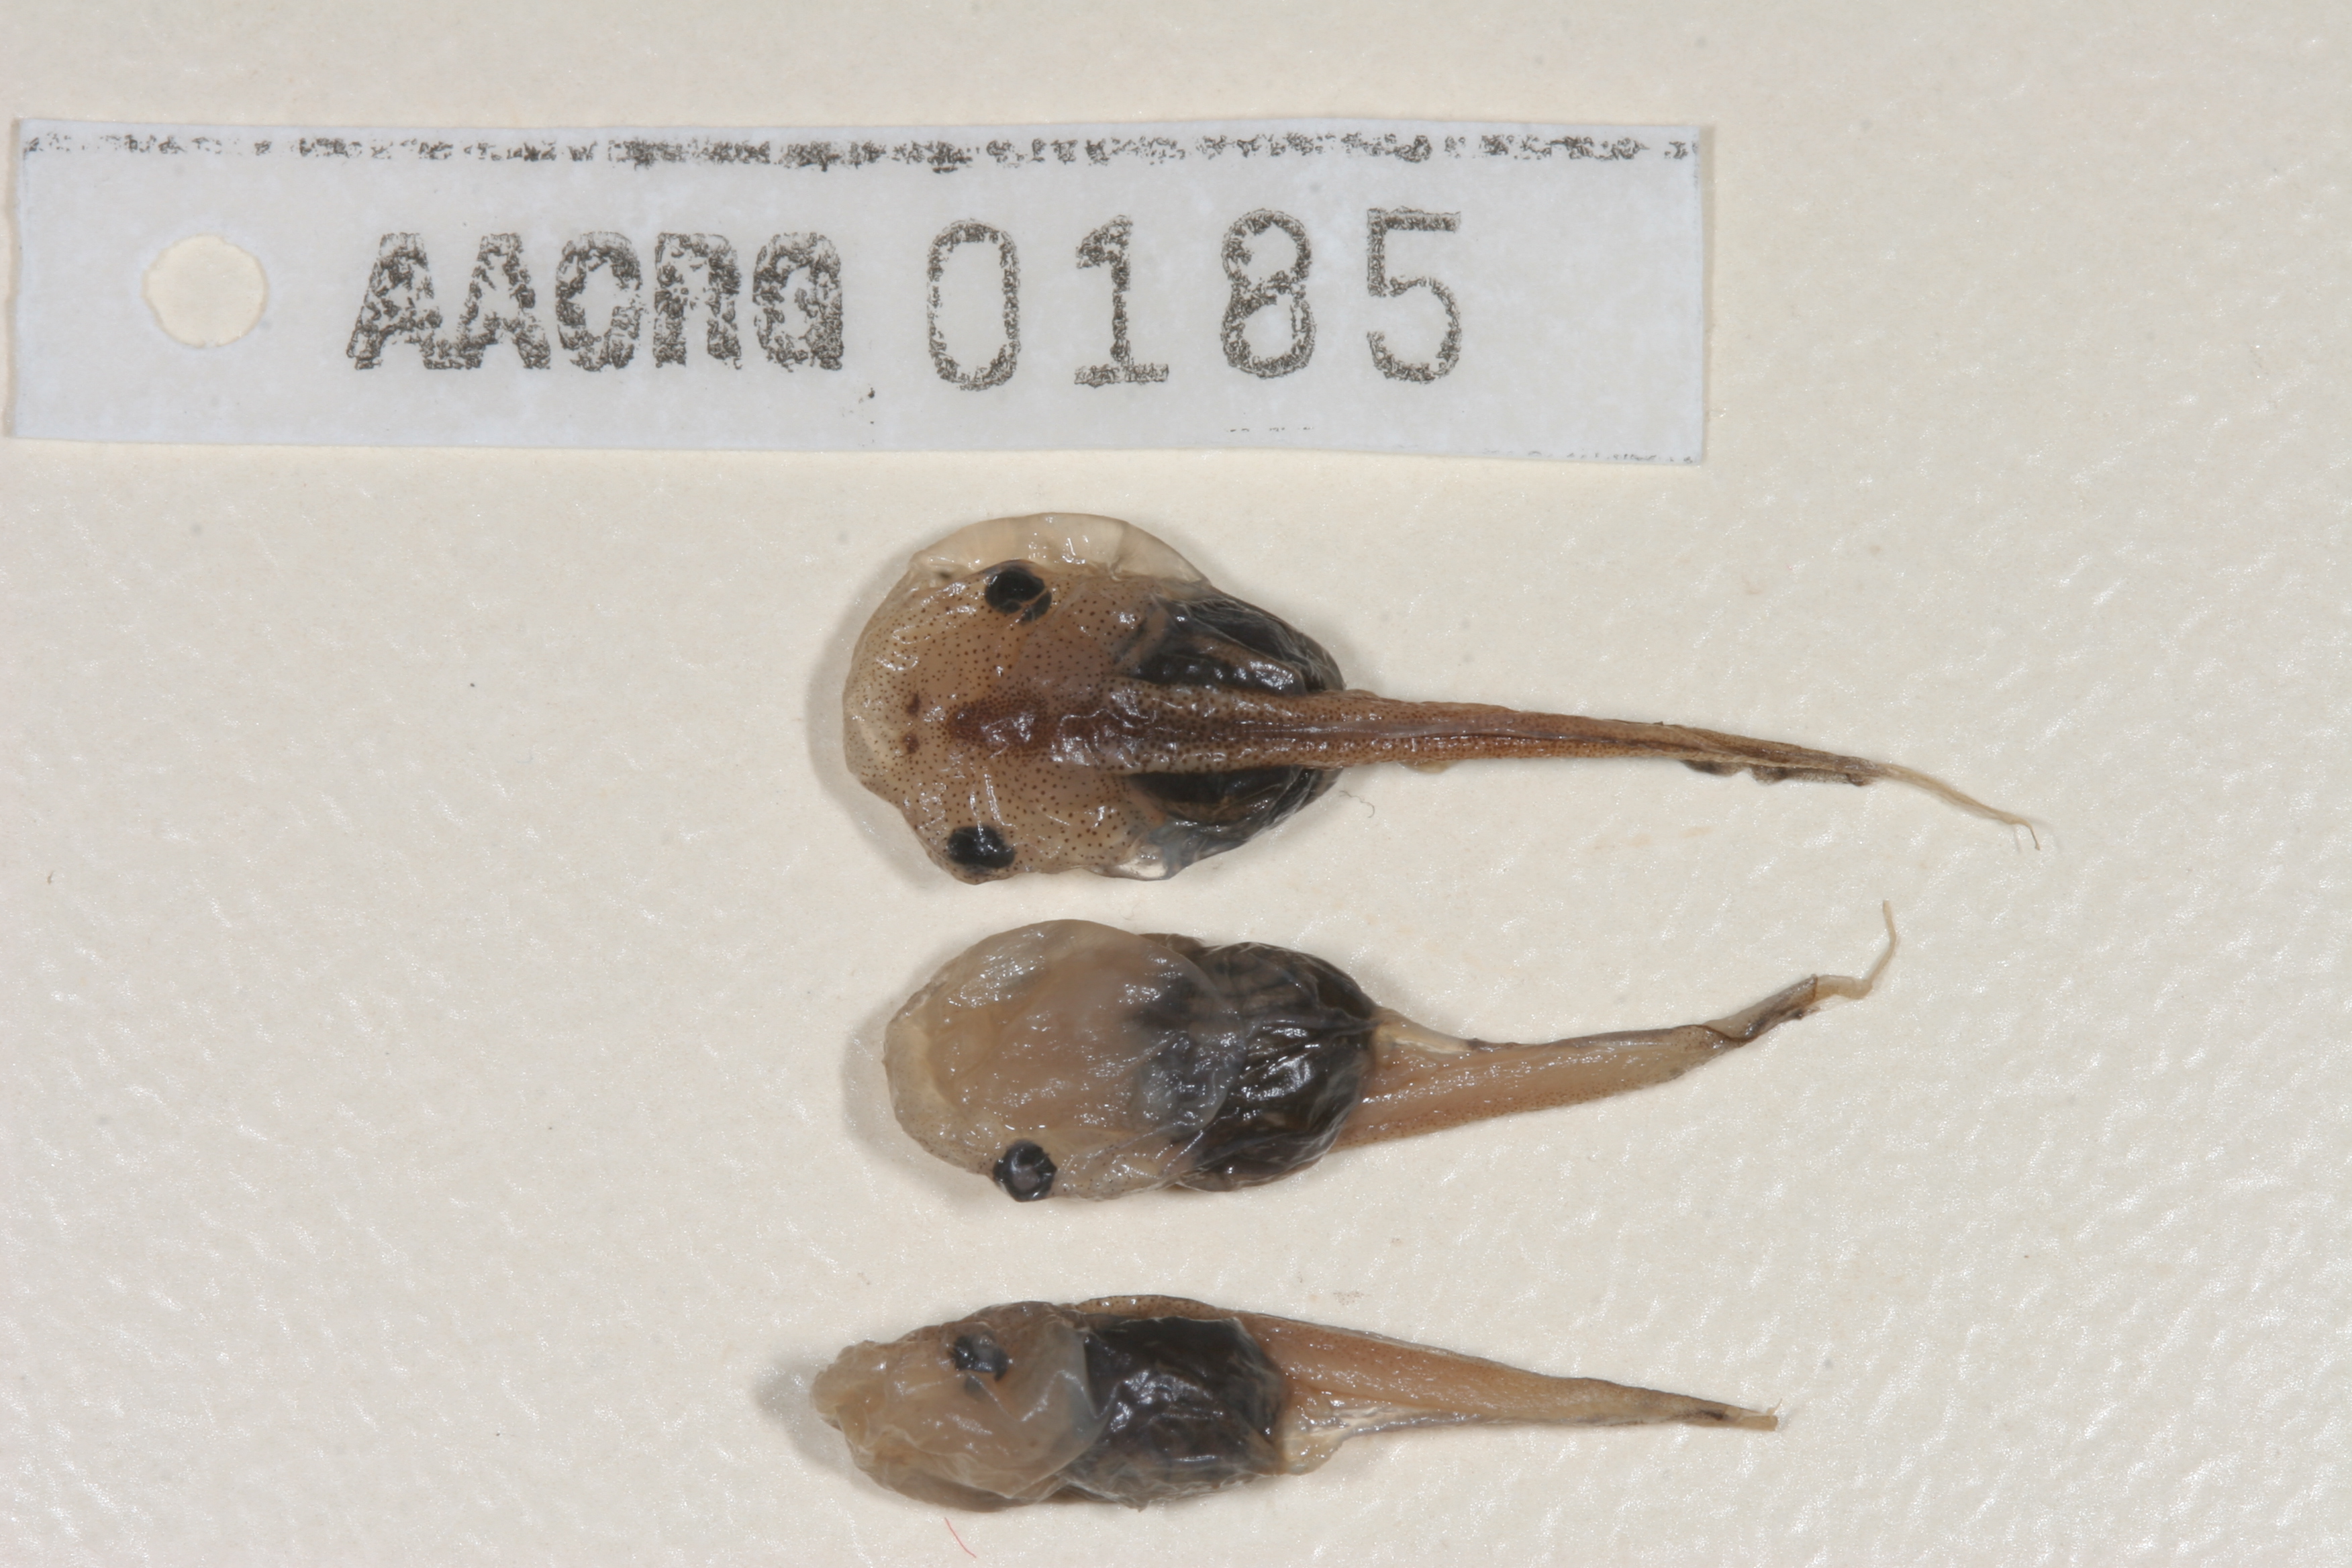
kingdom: Animalia
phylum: Chordata
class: Amphibia
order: Anura
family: Microhylidae
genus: Phrynomantis
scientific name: Phrynomantis bifasciatus
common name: Banded rubber frog
